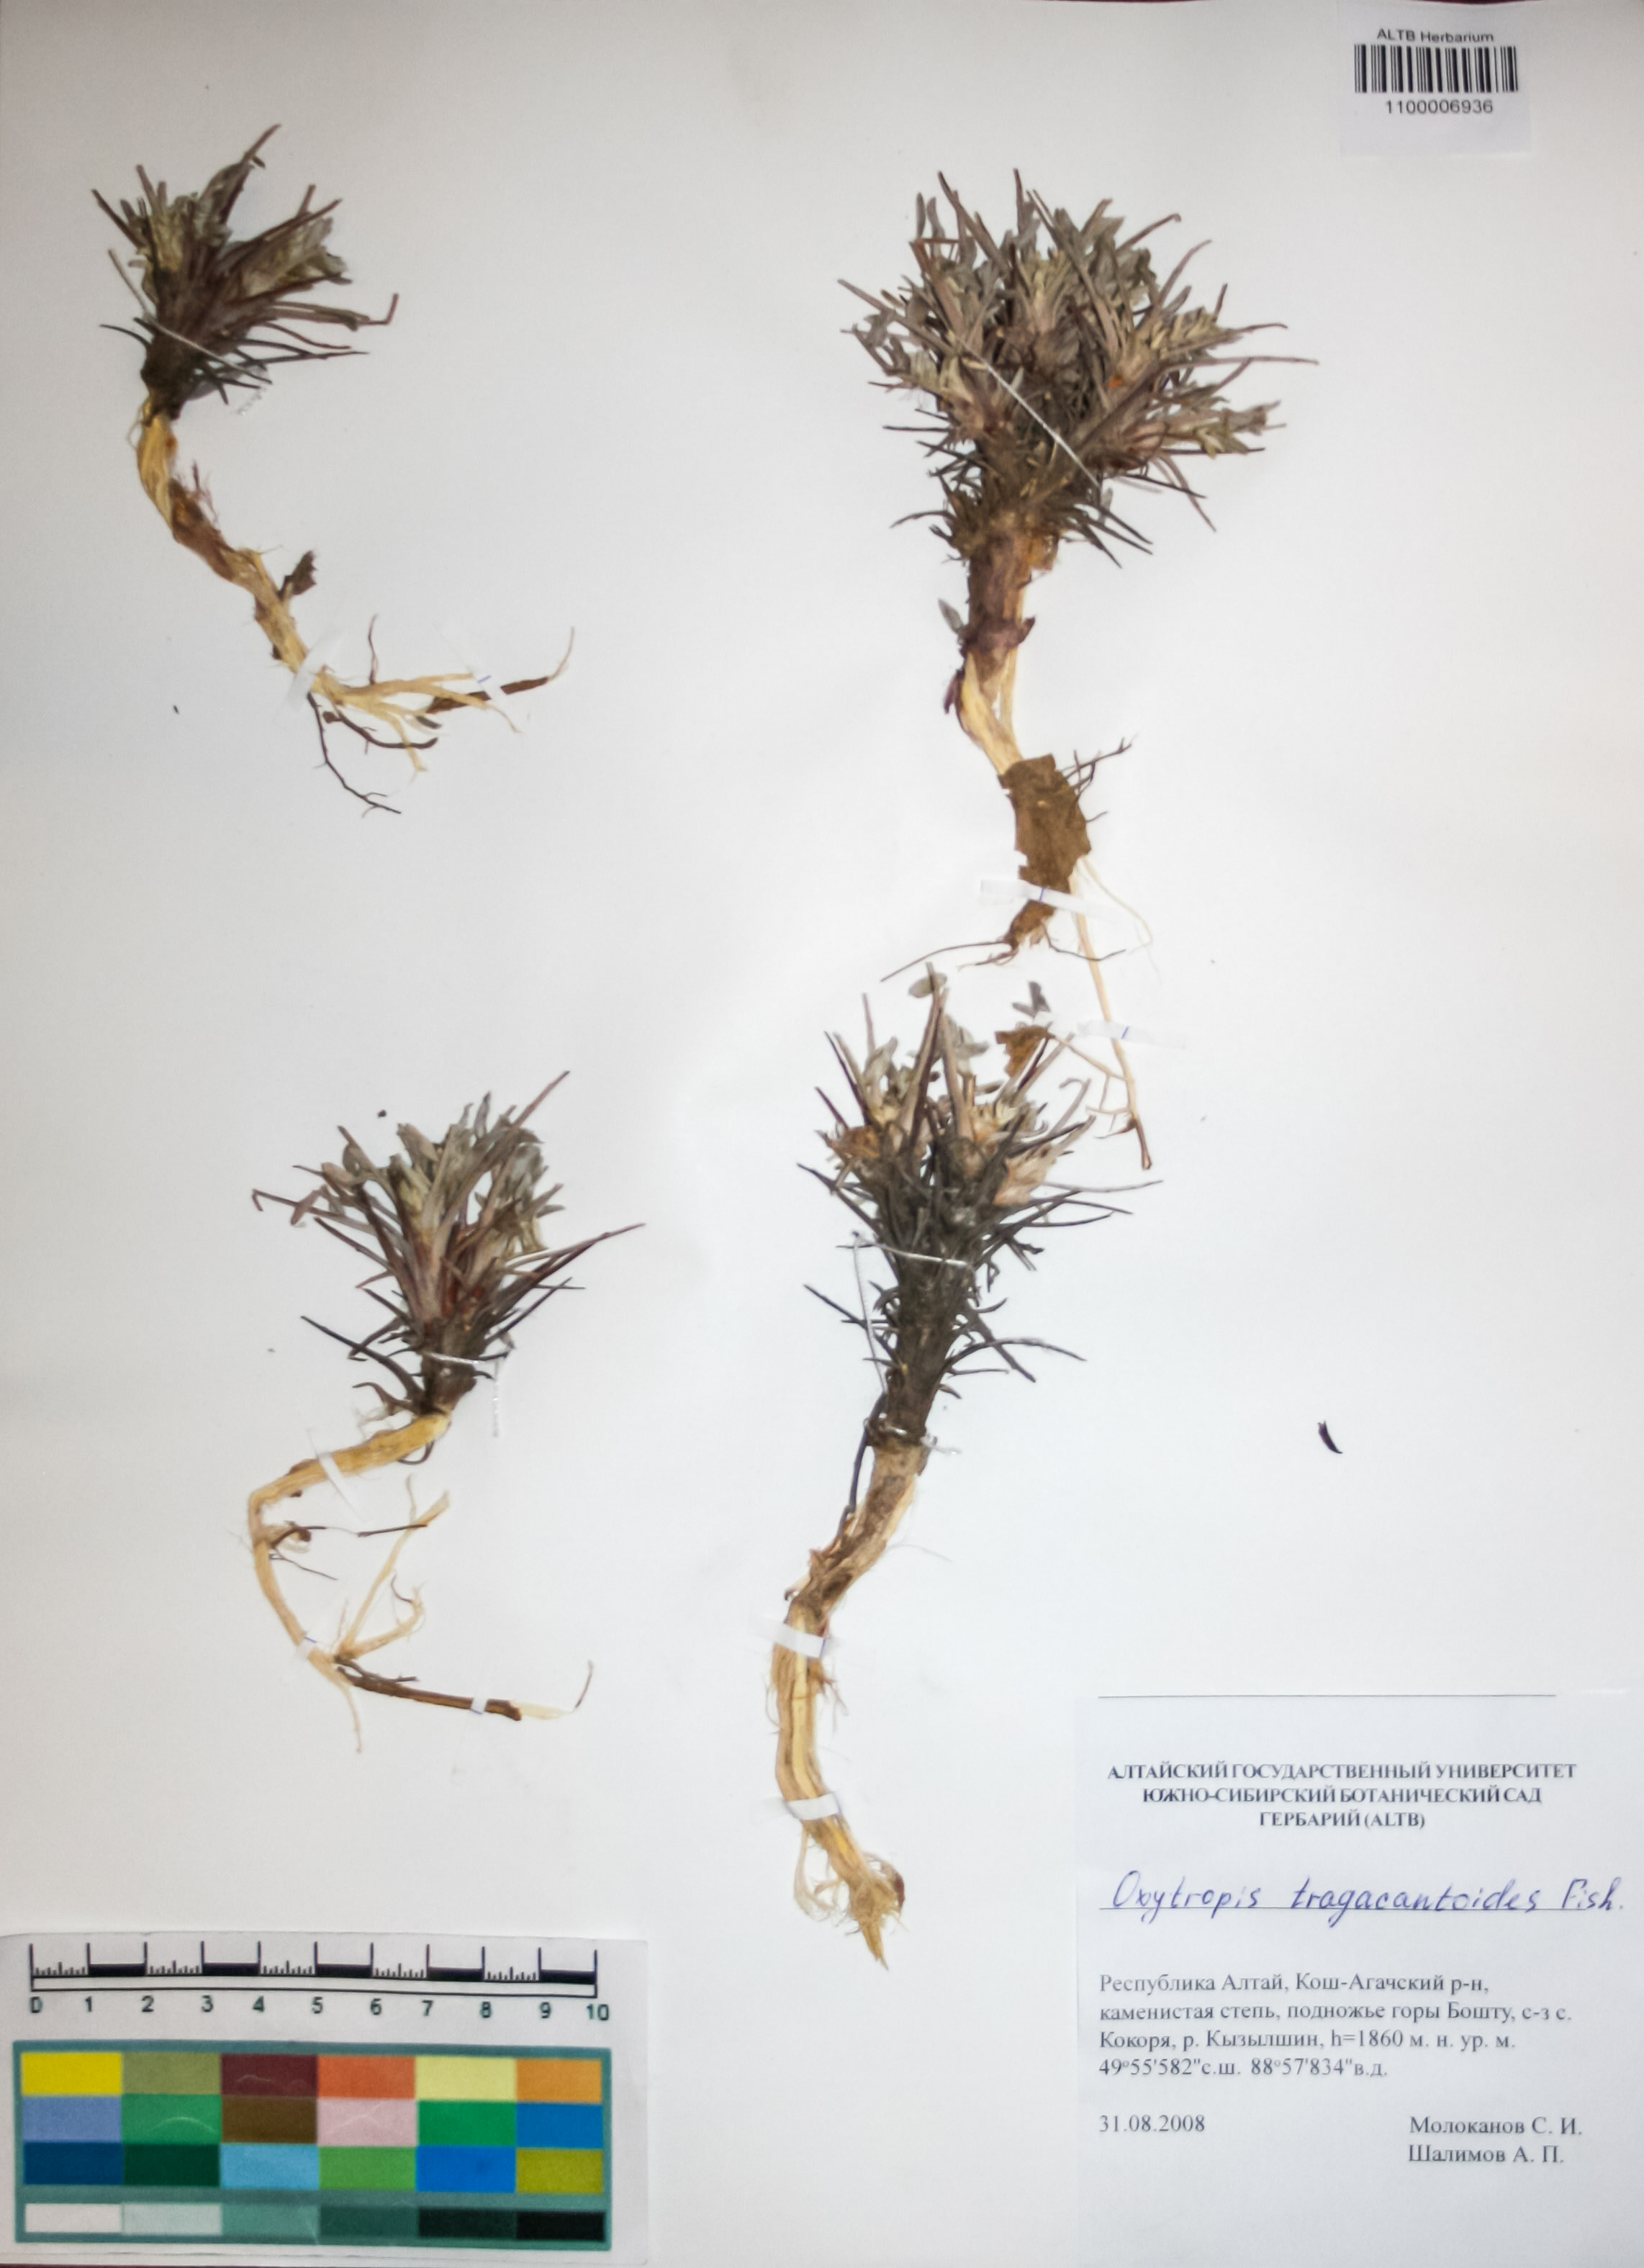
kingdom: Plantae
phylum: Tracheophyta
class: Magnoliopsida
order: Fabales
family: Fabaceae
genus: Oxytropis
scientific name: Oxytropis tragacanthoides
